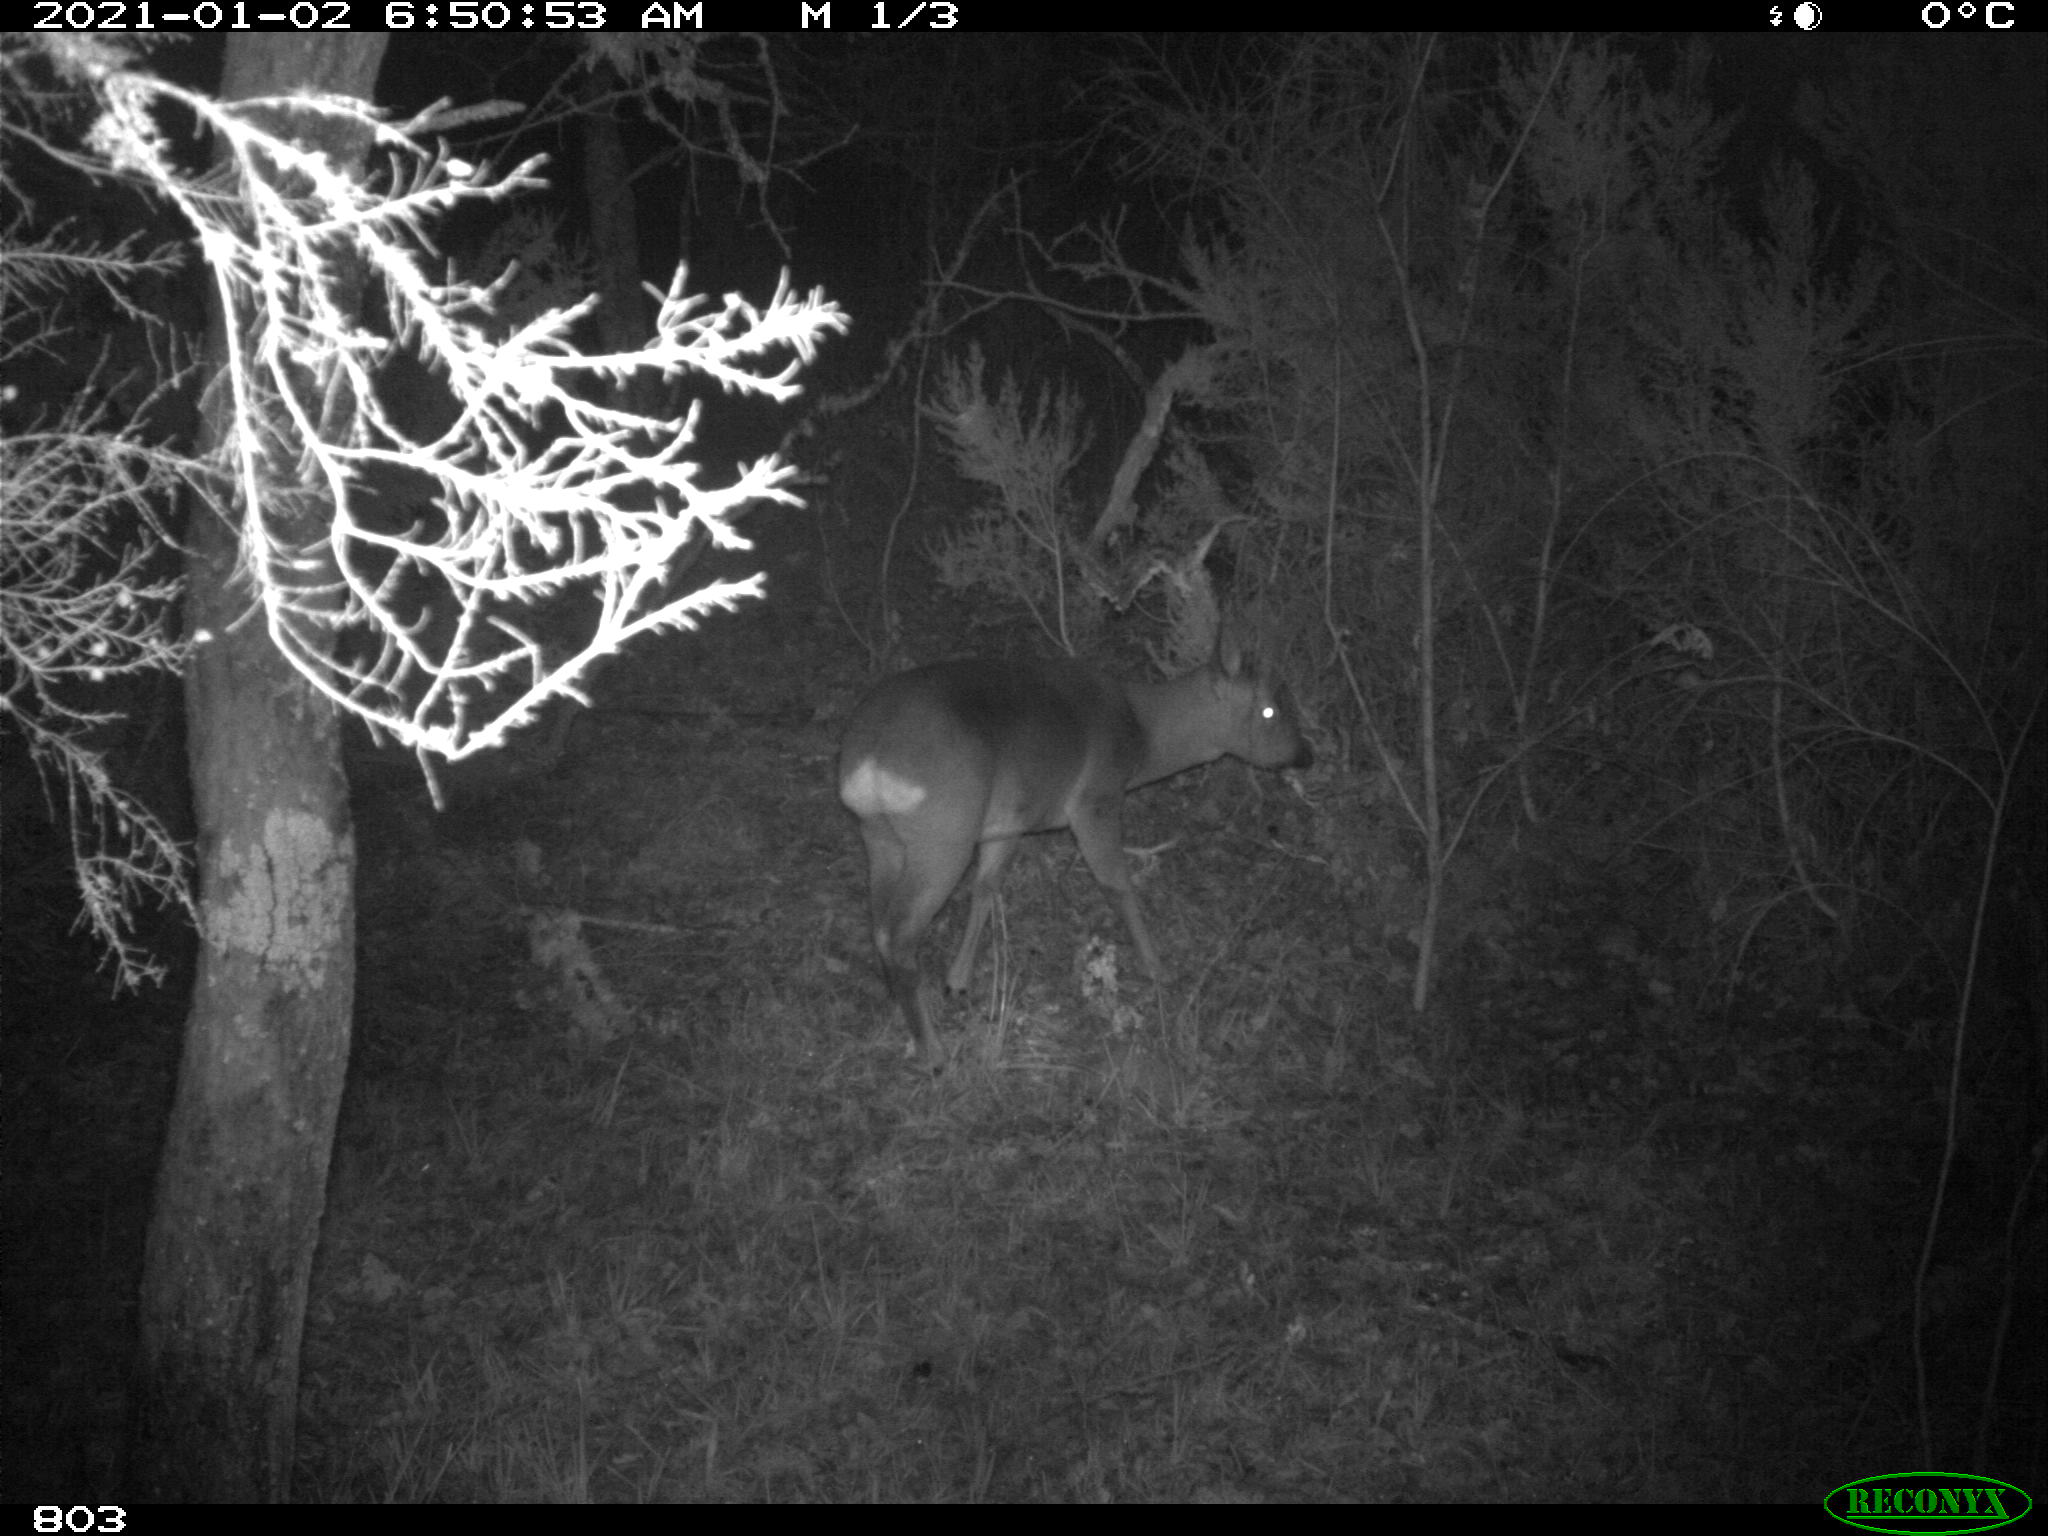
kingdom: Animalia
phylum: Chordata
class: Mammalia
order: Artiodactyla
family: Cervidae
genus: Capreolus
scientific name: Capreolus capreolus
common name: Western roe deer
